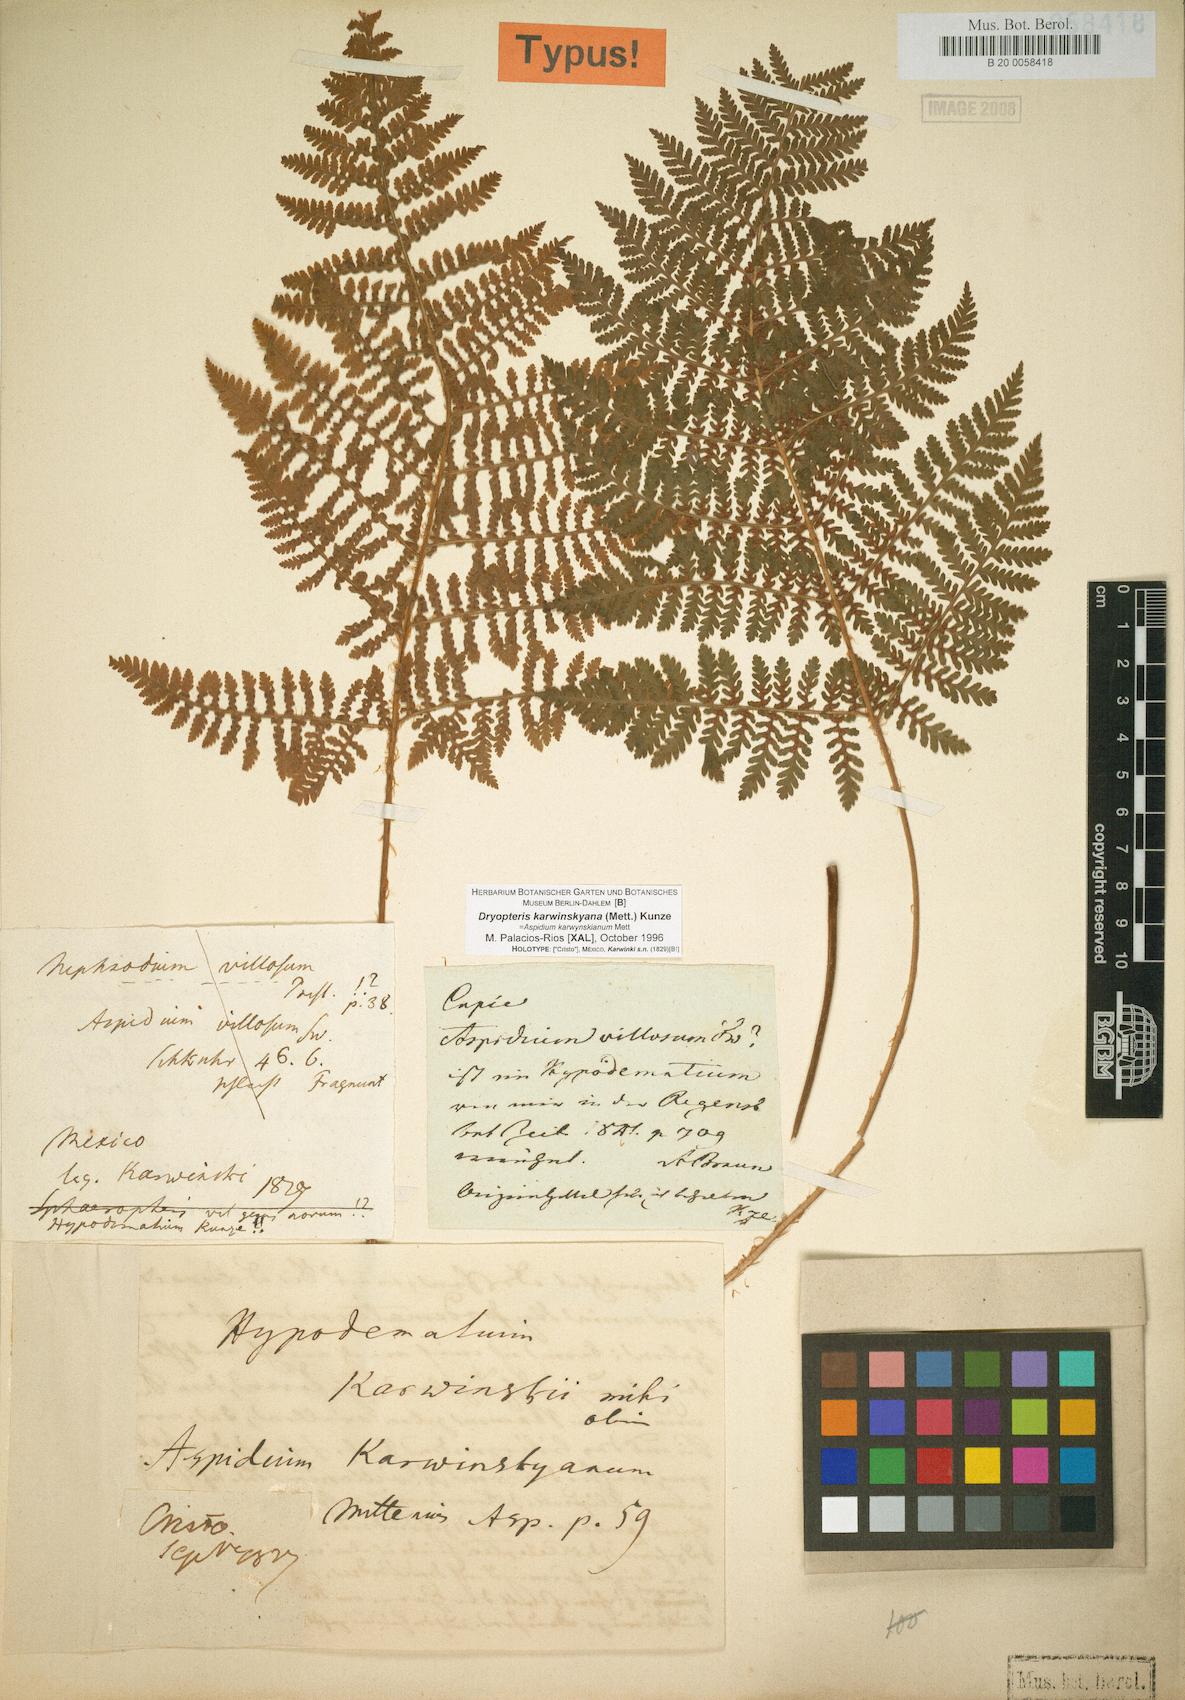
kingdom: Plantae
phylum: Tracheophyta
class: Polypodiopsida
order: Polypodiales
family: Dryopteridaceae
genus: Dryopteris
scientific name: Dryopteris karwinskyana
